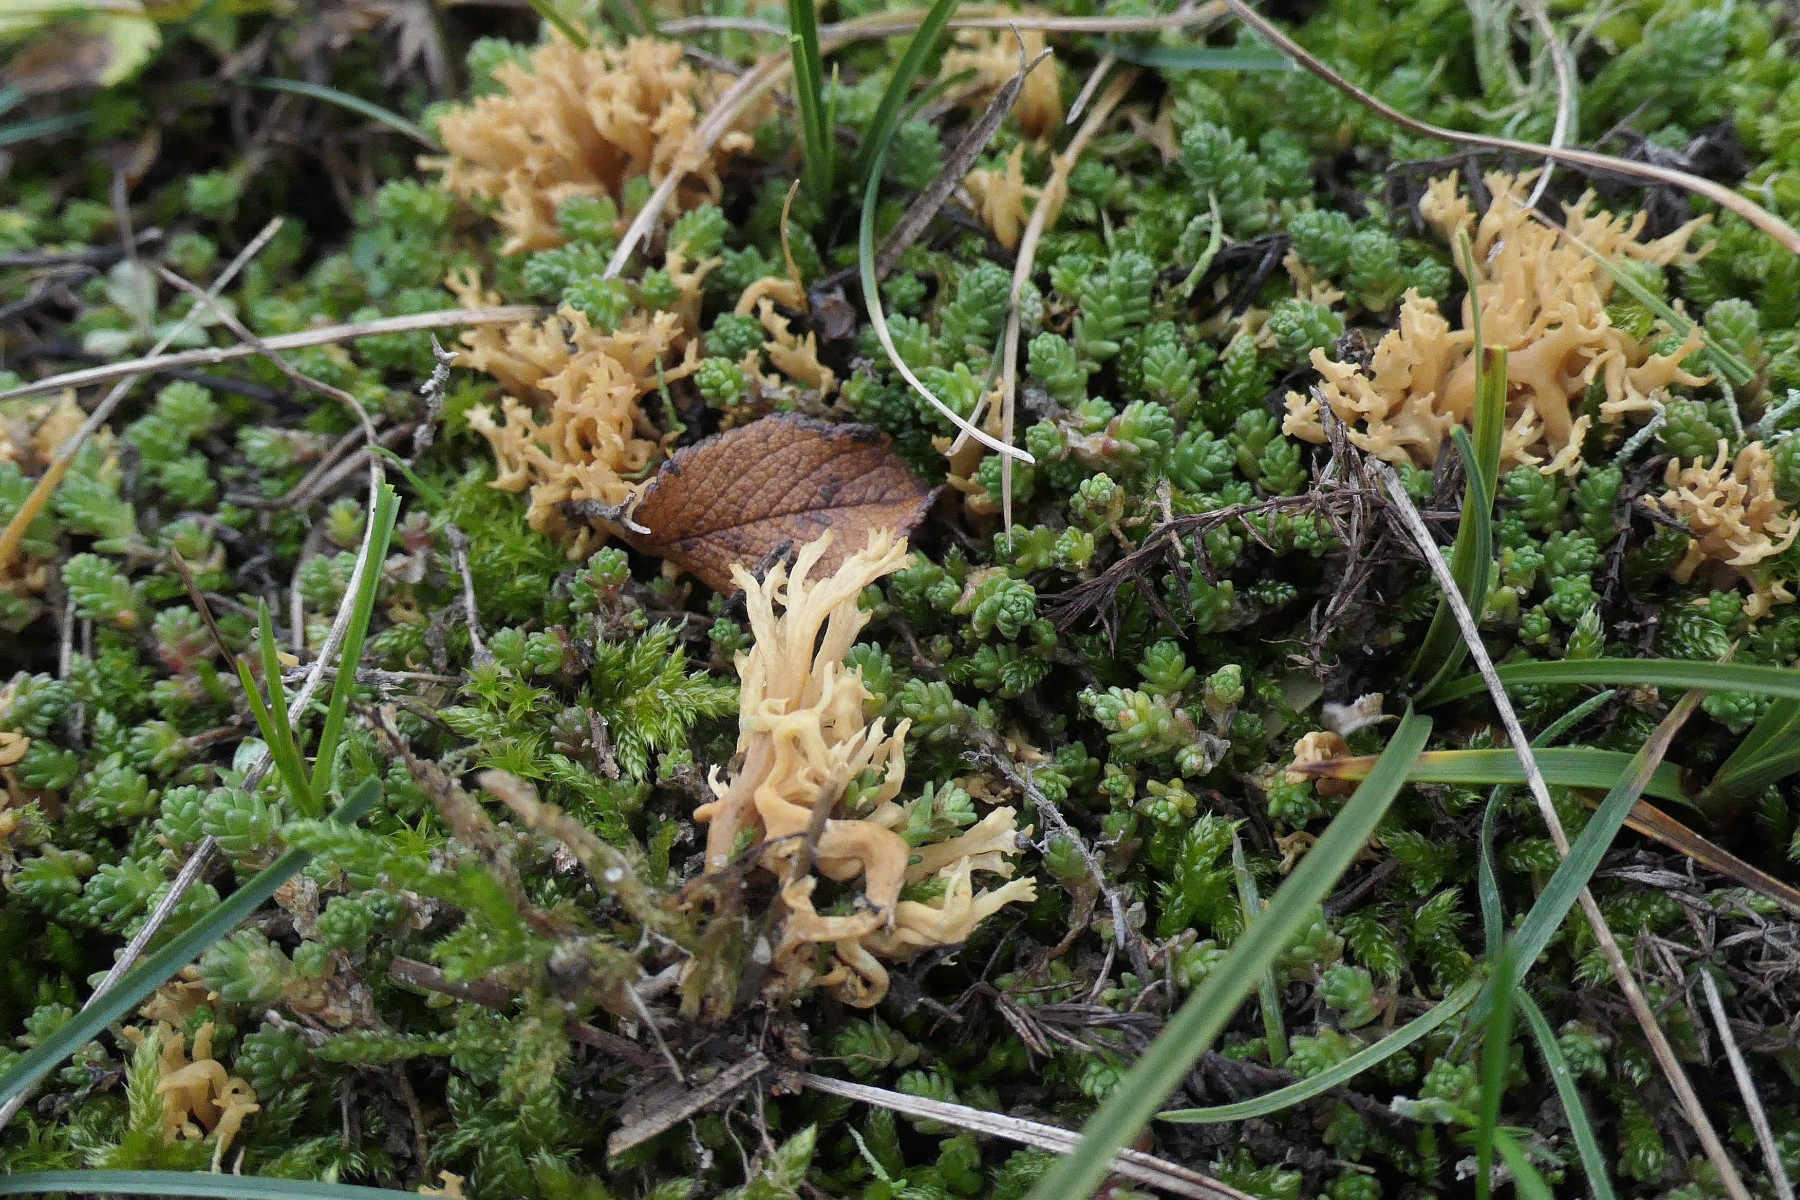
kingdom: Fungi
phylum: Basidiomycota
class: Agaricomycetes
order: Gomphales
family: Gomphaceae
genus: Phaeoclavulina
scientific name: Phaeoclavulina flaccida
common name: spinkel koralsvamp
